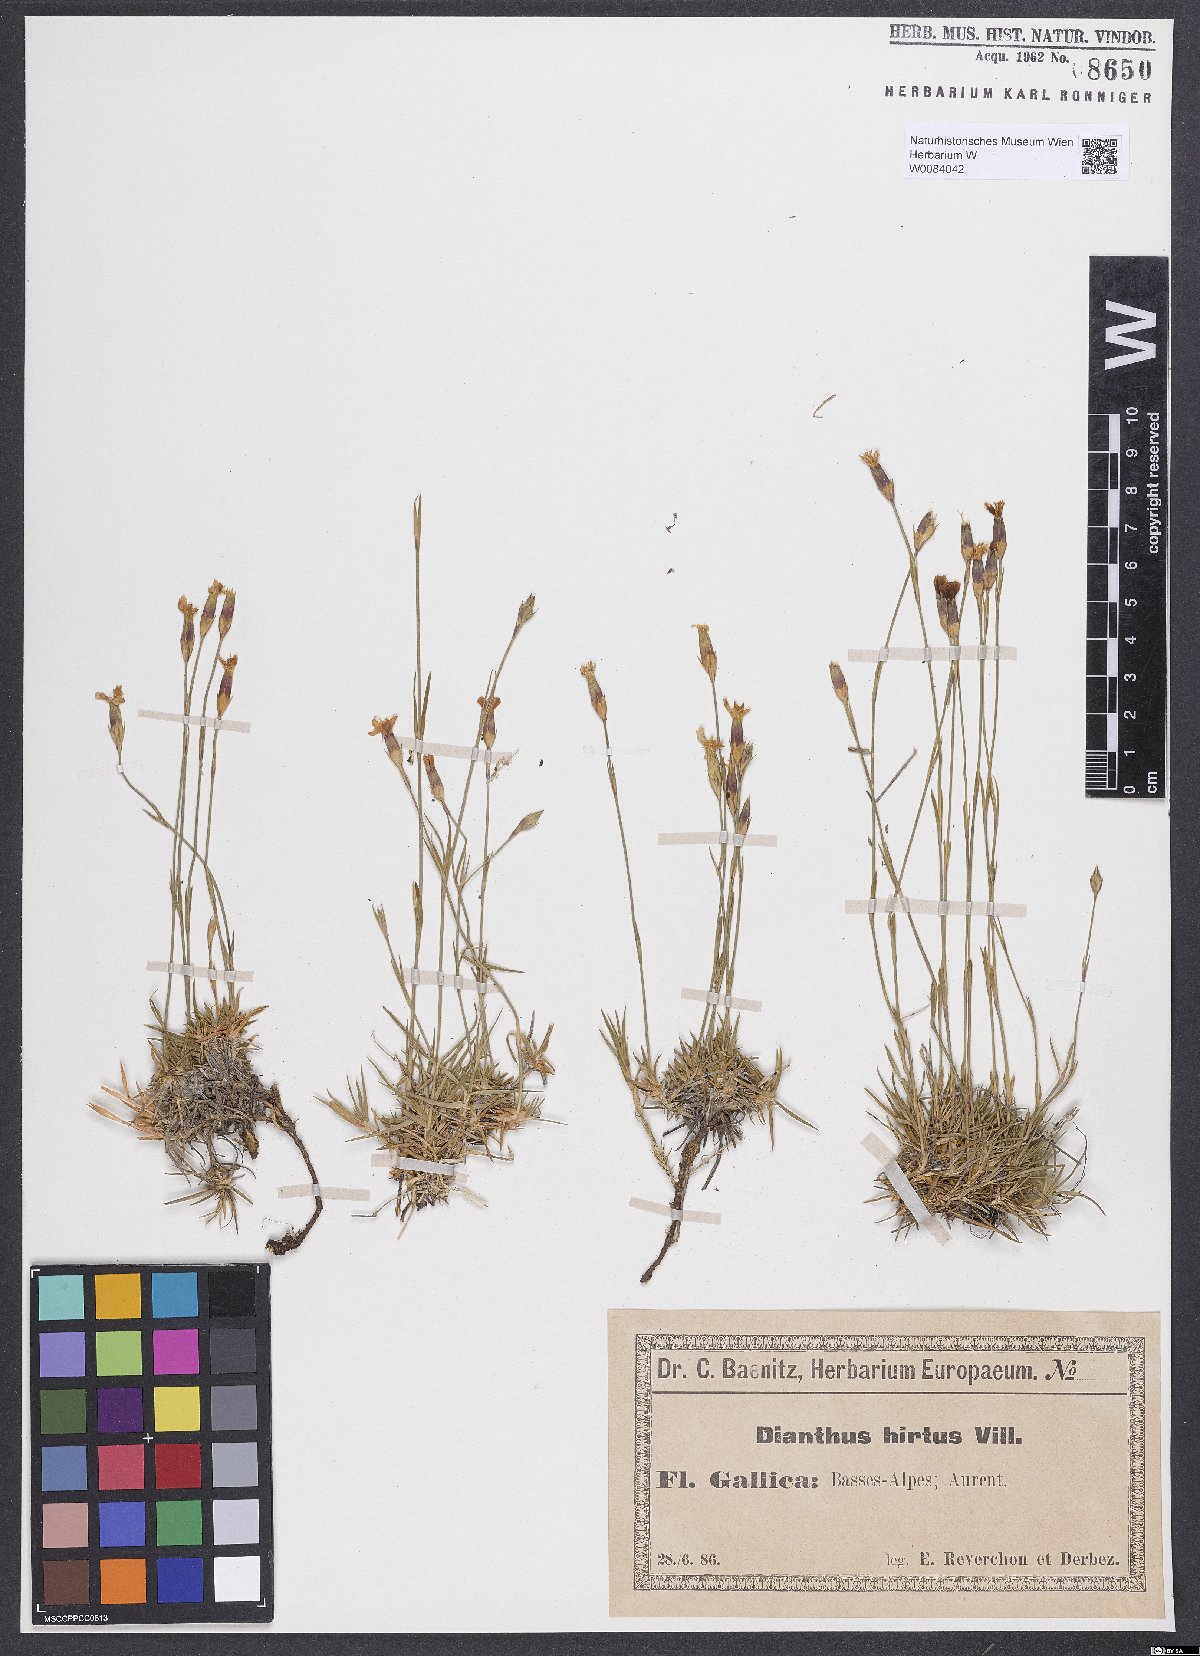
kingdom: Plantae
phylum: Tracheophyta
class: Magnoliopsida
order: Caryophyllales
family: Caryophyllaceae
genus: Dianthus
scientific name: Dianthus scaber
